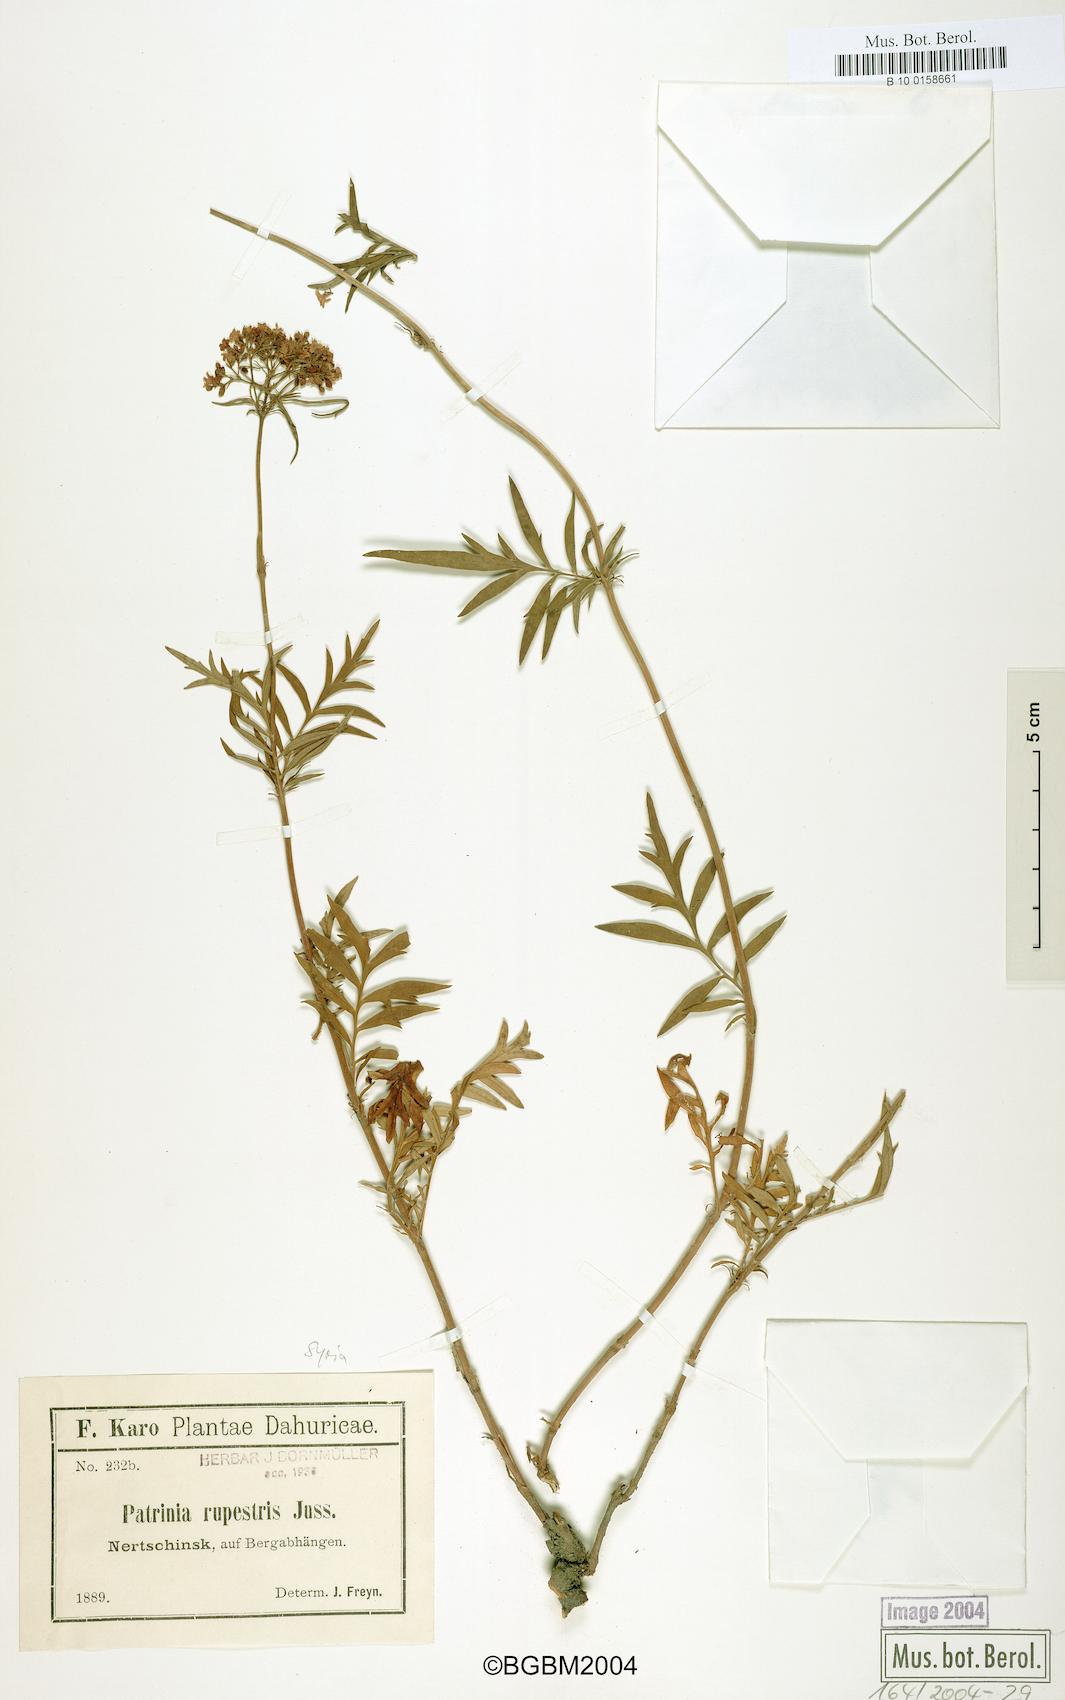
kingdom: Plantae
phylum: Tracheophyta
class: Magnoliopsida
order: Dipsacales
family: Caprifoliaceae
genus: Patrinia
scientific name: Patrinia rupestris
